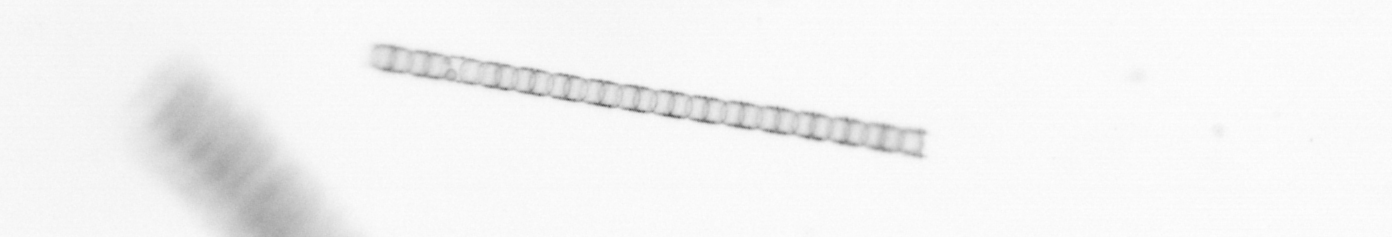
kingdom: Chromista
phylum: Ochrophyta
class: Bacillariophyceae
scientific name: Bacillariophyceae
